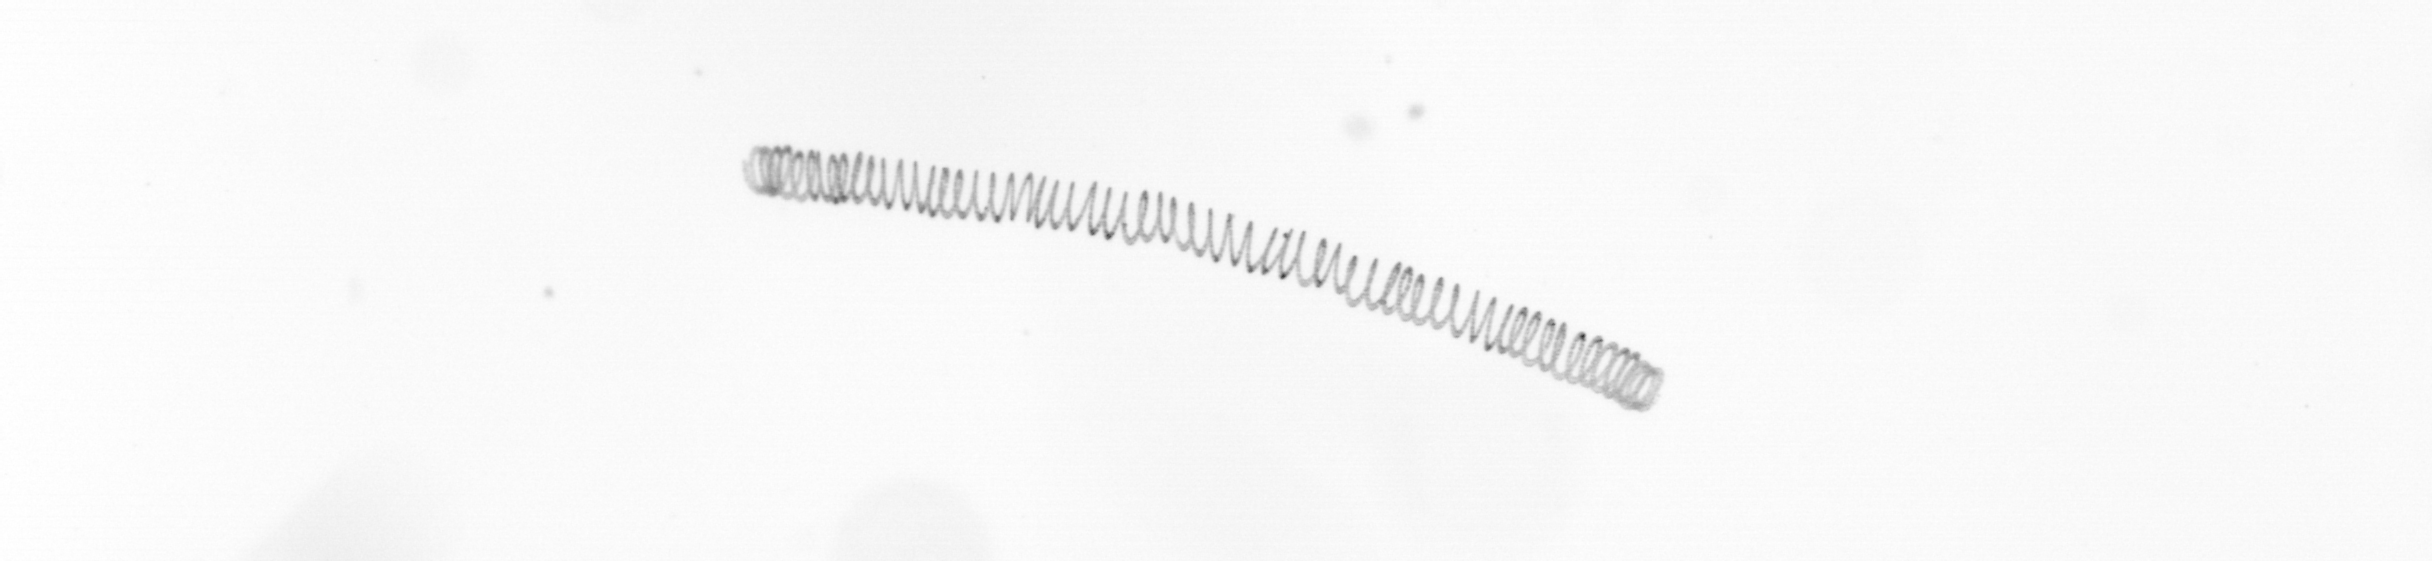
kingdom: Chromista
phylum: Ochrophyta
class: Bacillariophyceae
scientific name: Bacillariophyceae
